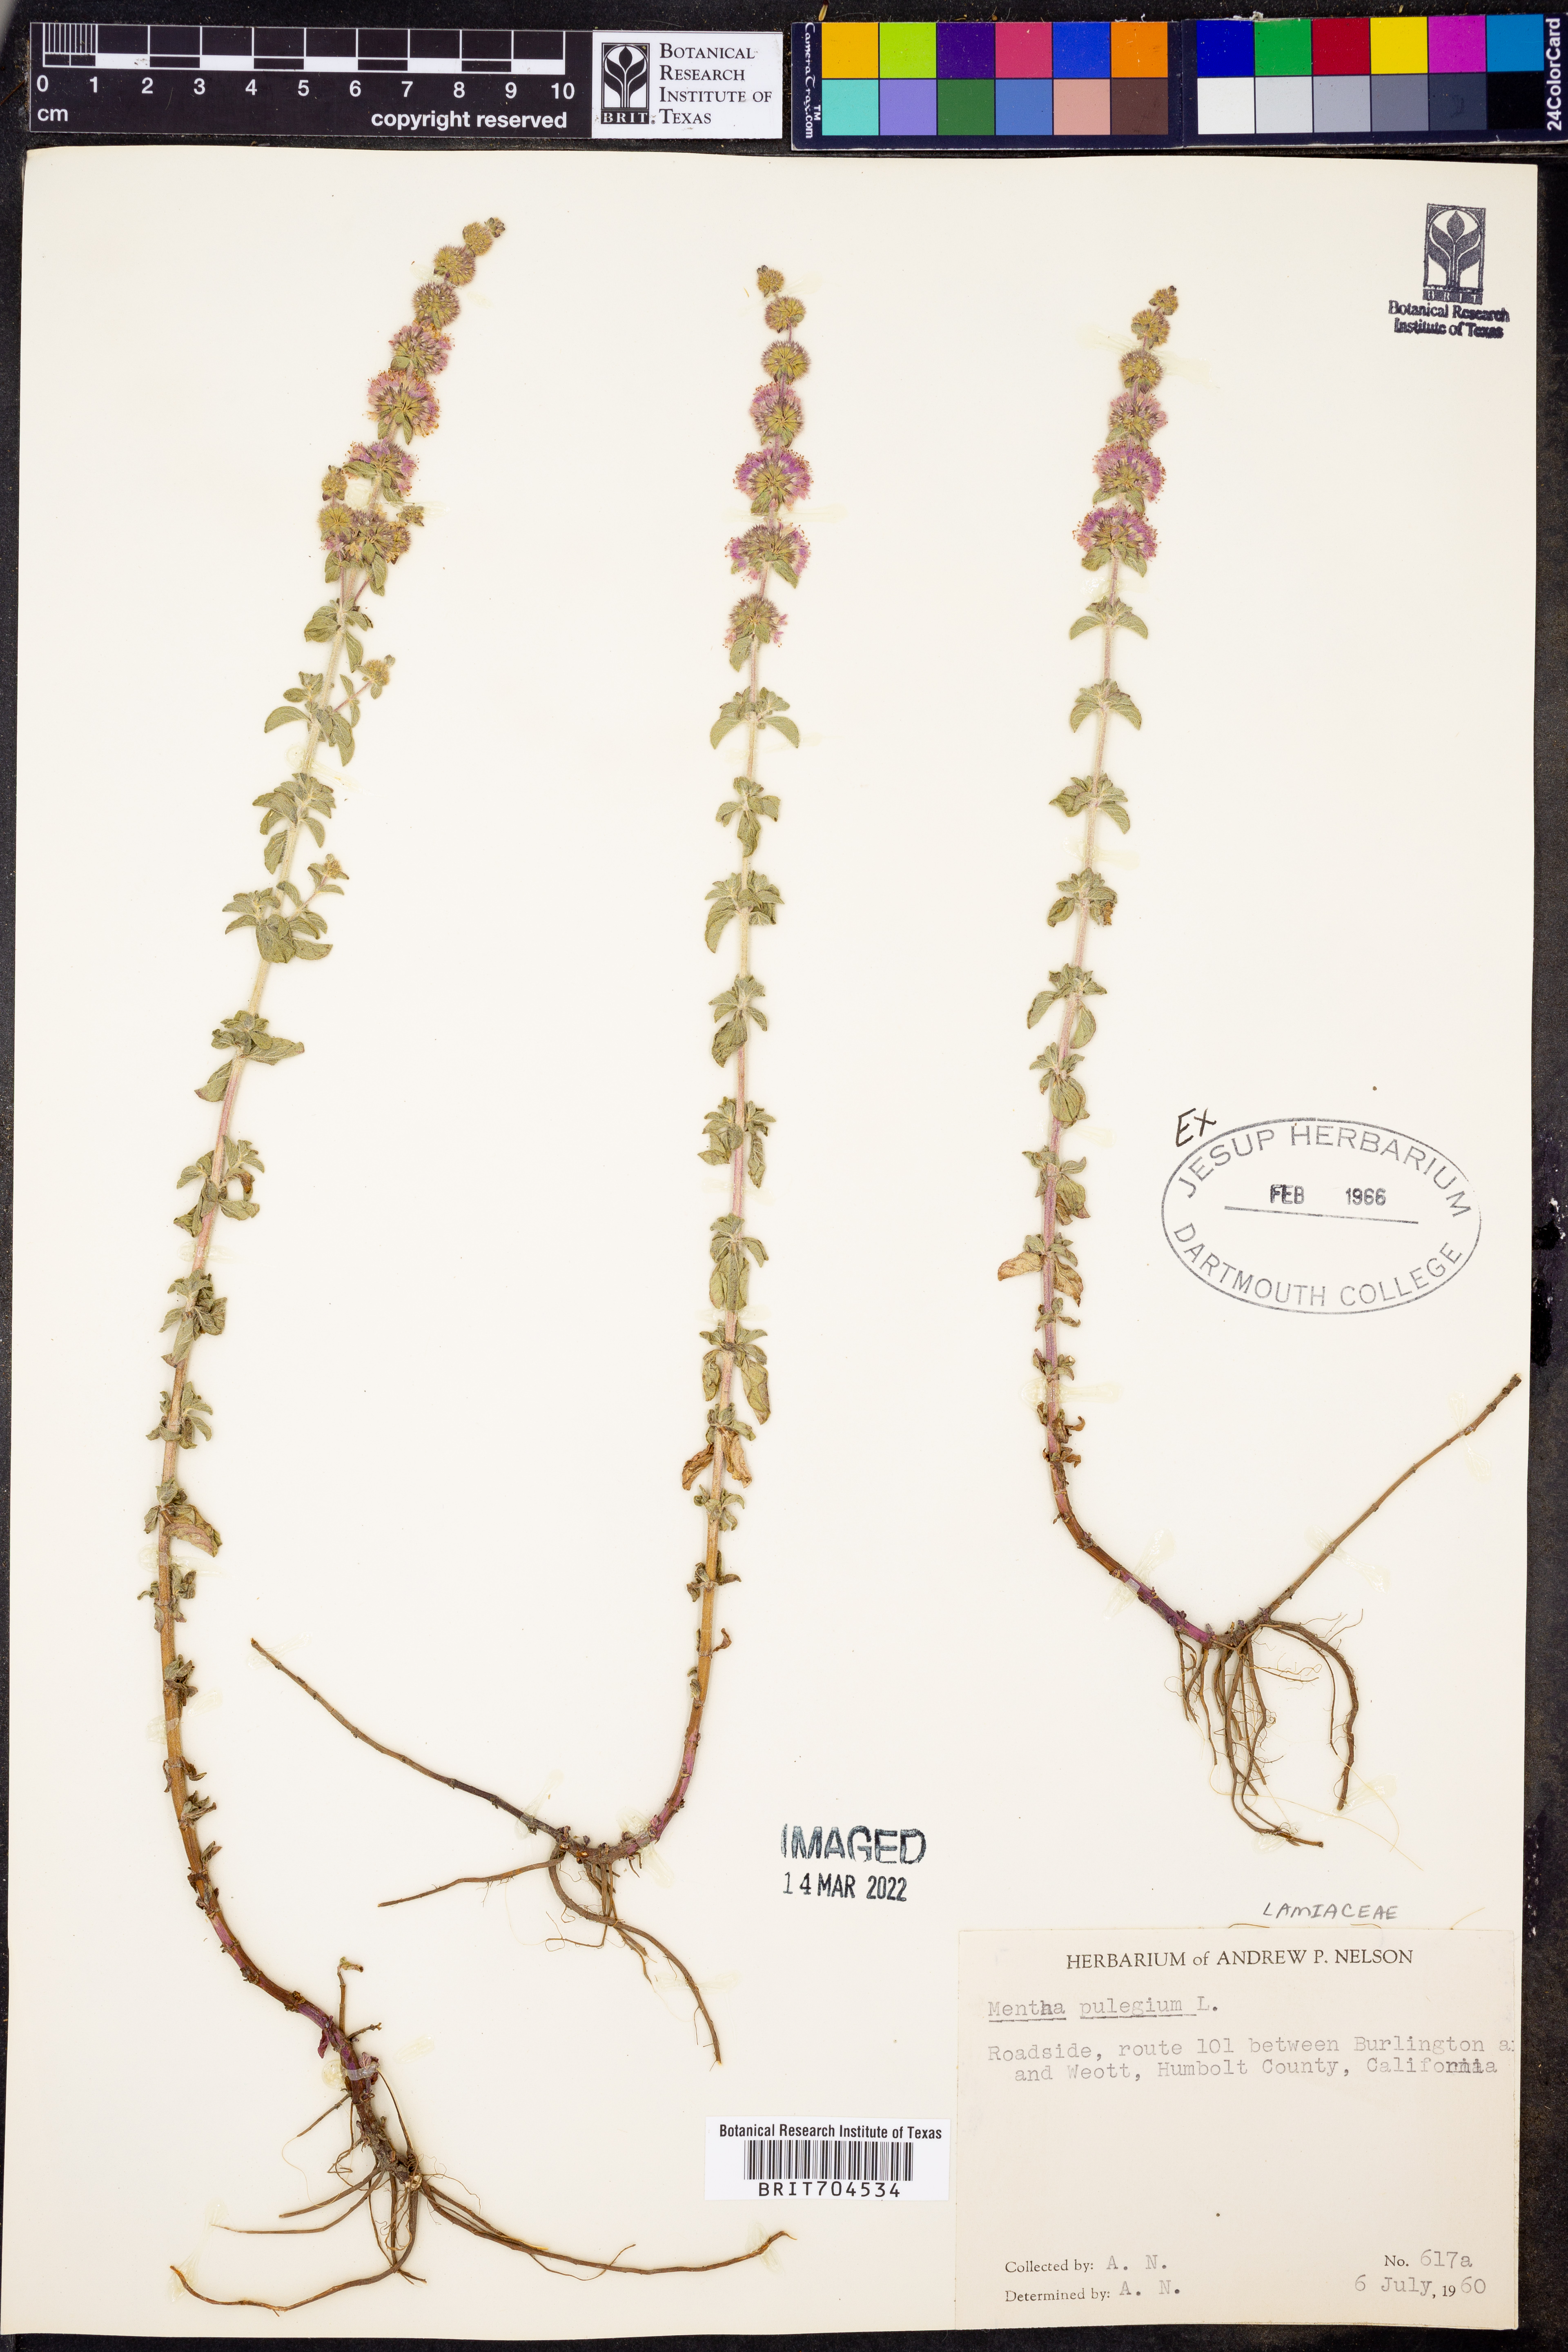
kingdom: Plantae
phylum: Tracheophyta
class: Magnoliopsida
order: Lamiales
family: Lamiaceae
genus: Mentha
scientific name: Mentha
